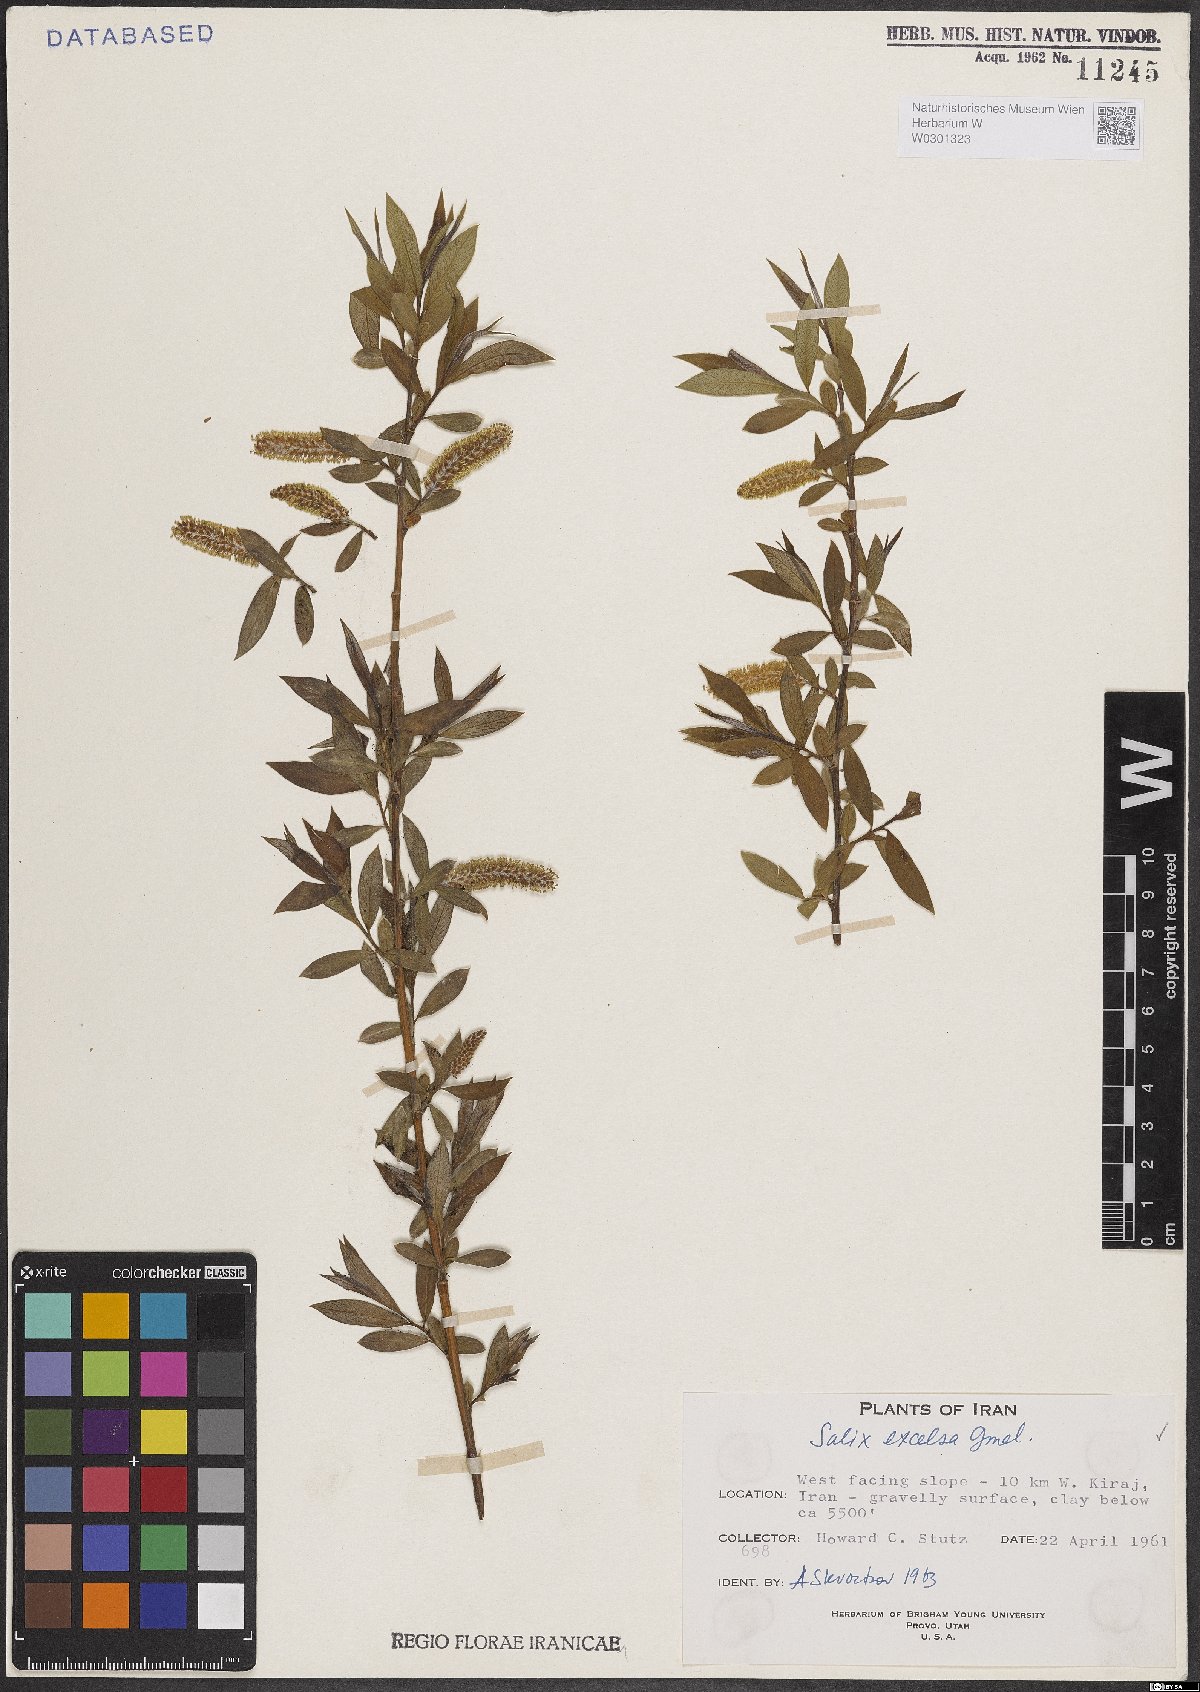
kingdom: Plantae
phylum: Tracheophyta
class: Magnoliopsida
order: Malpighiales
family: Salicaceae
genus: Salix
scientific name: Salix excelsa
